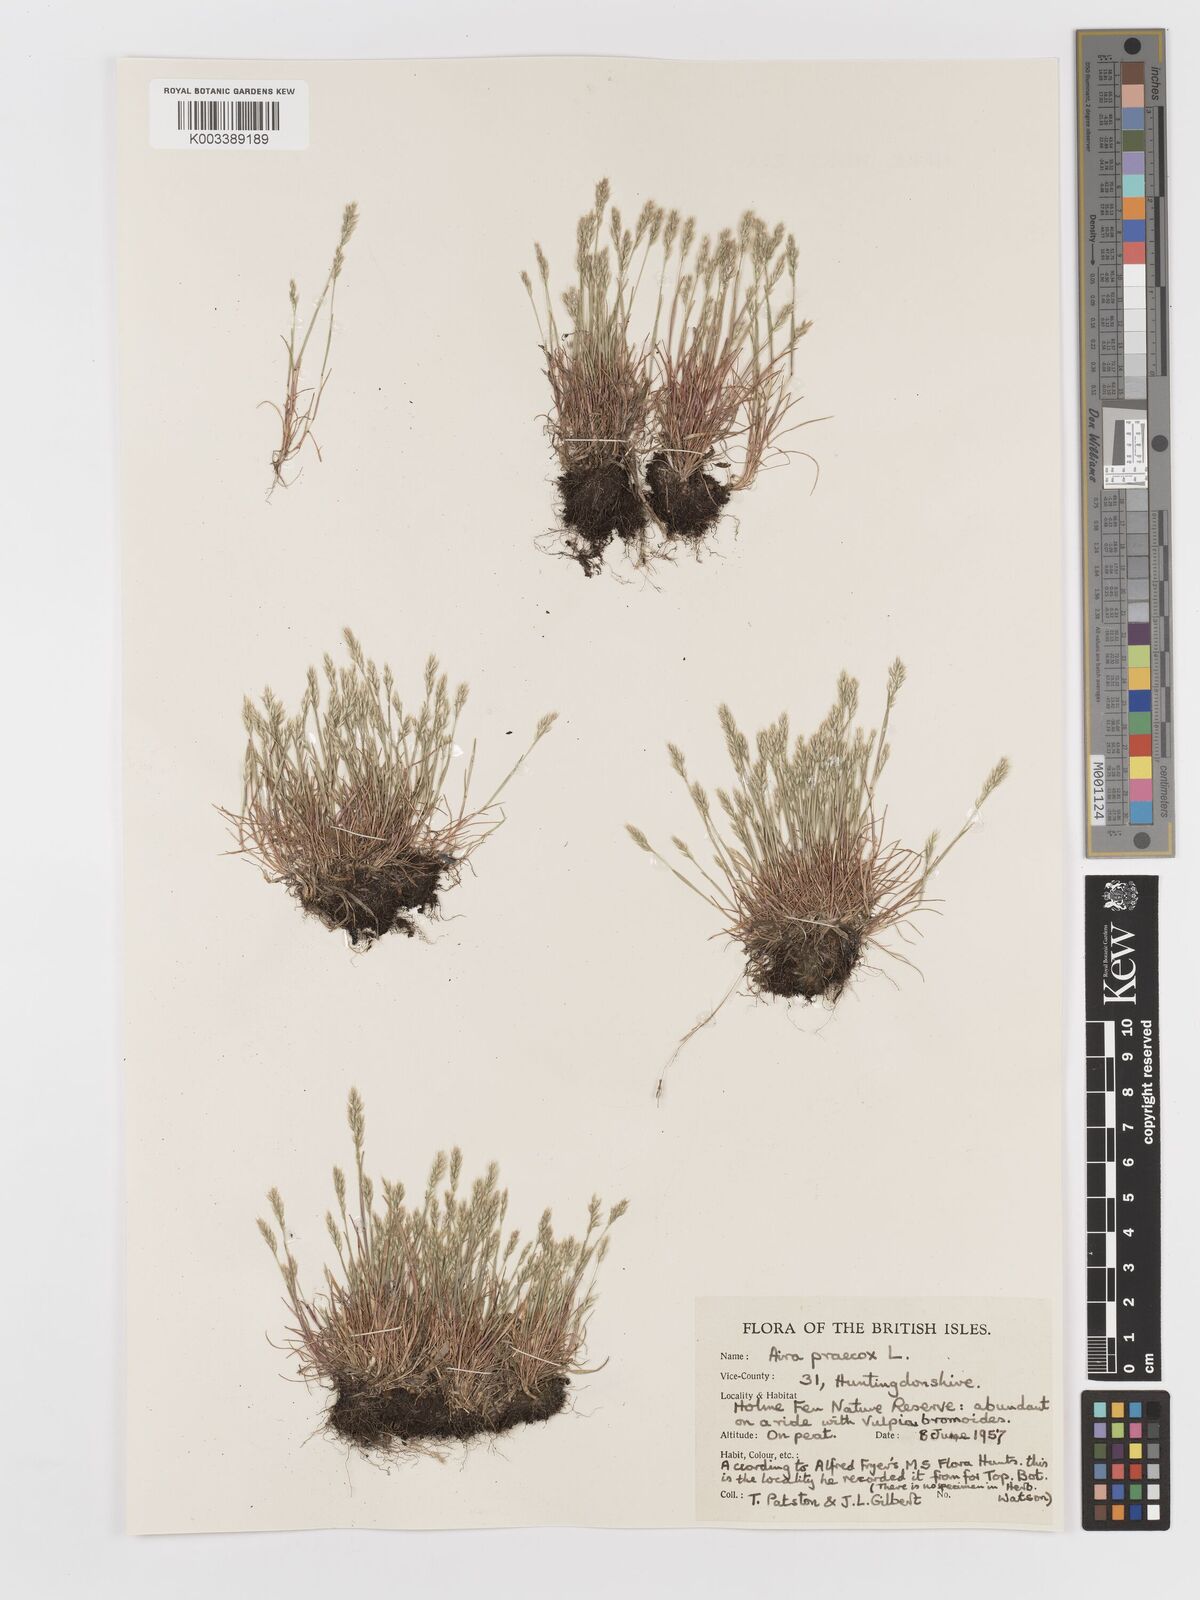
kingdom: Plantae
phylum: Tracheophyta
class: Liliopsida
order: Poales
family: Poaceae
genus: Aira
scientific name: Aira praecox
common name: Early hair-grass
